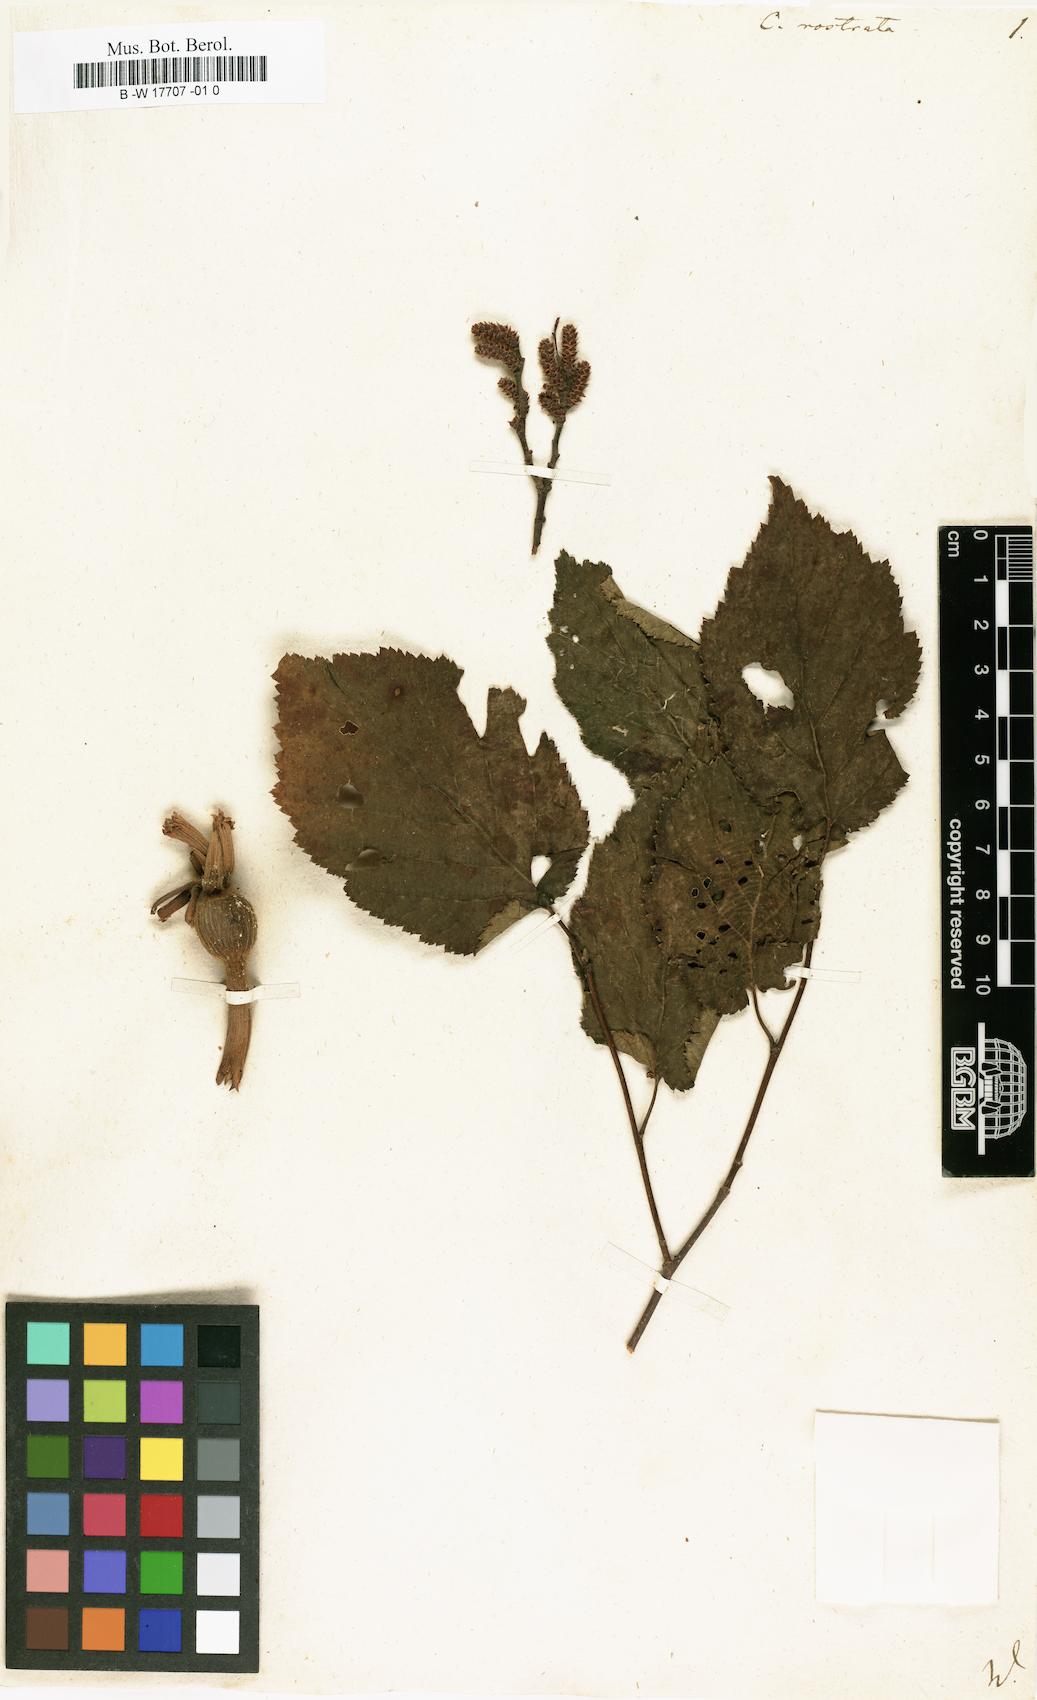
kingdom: Plantae
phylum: Tracheophyta
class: Magnoliopsida
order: Fagales
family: Betulaceae
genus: Corylus
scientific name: Corylus cornuta
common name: Beaked hazel
